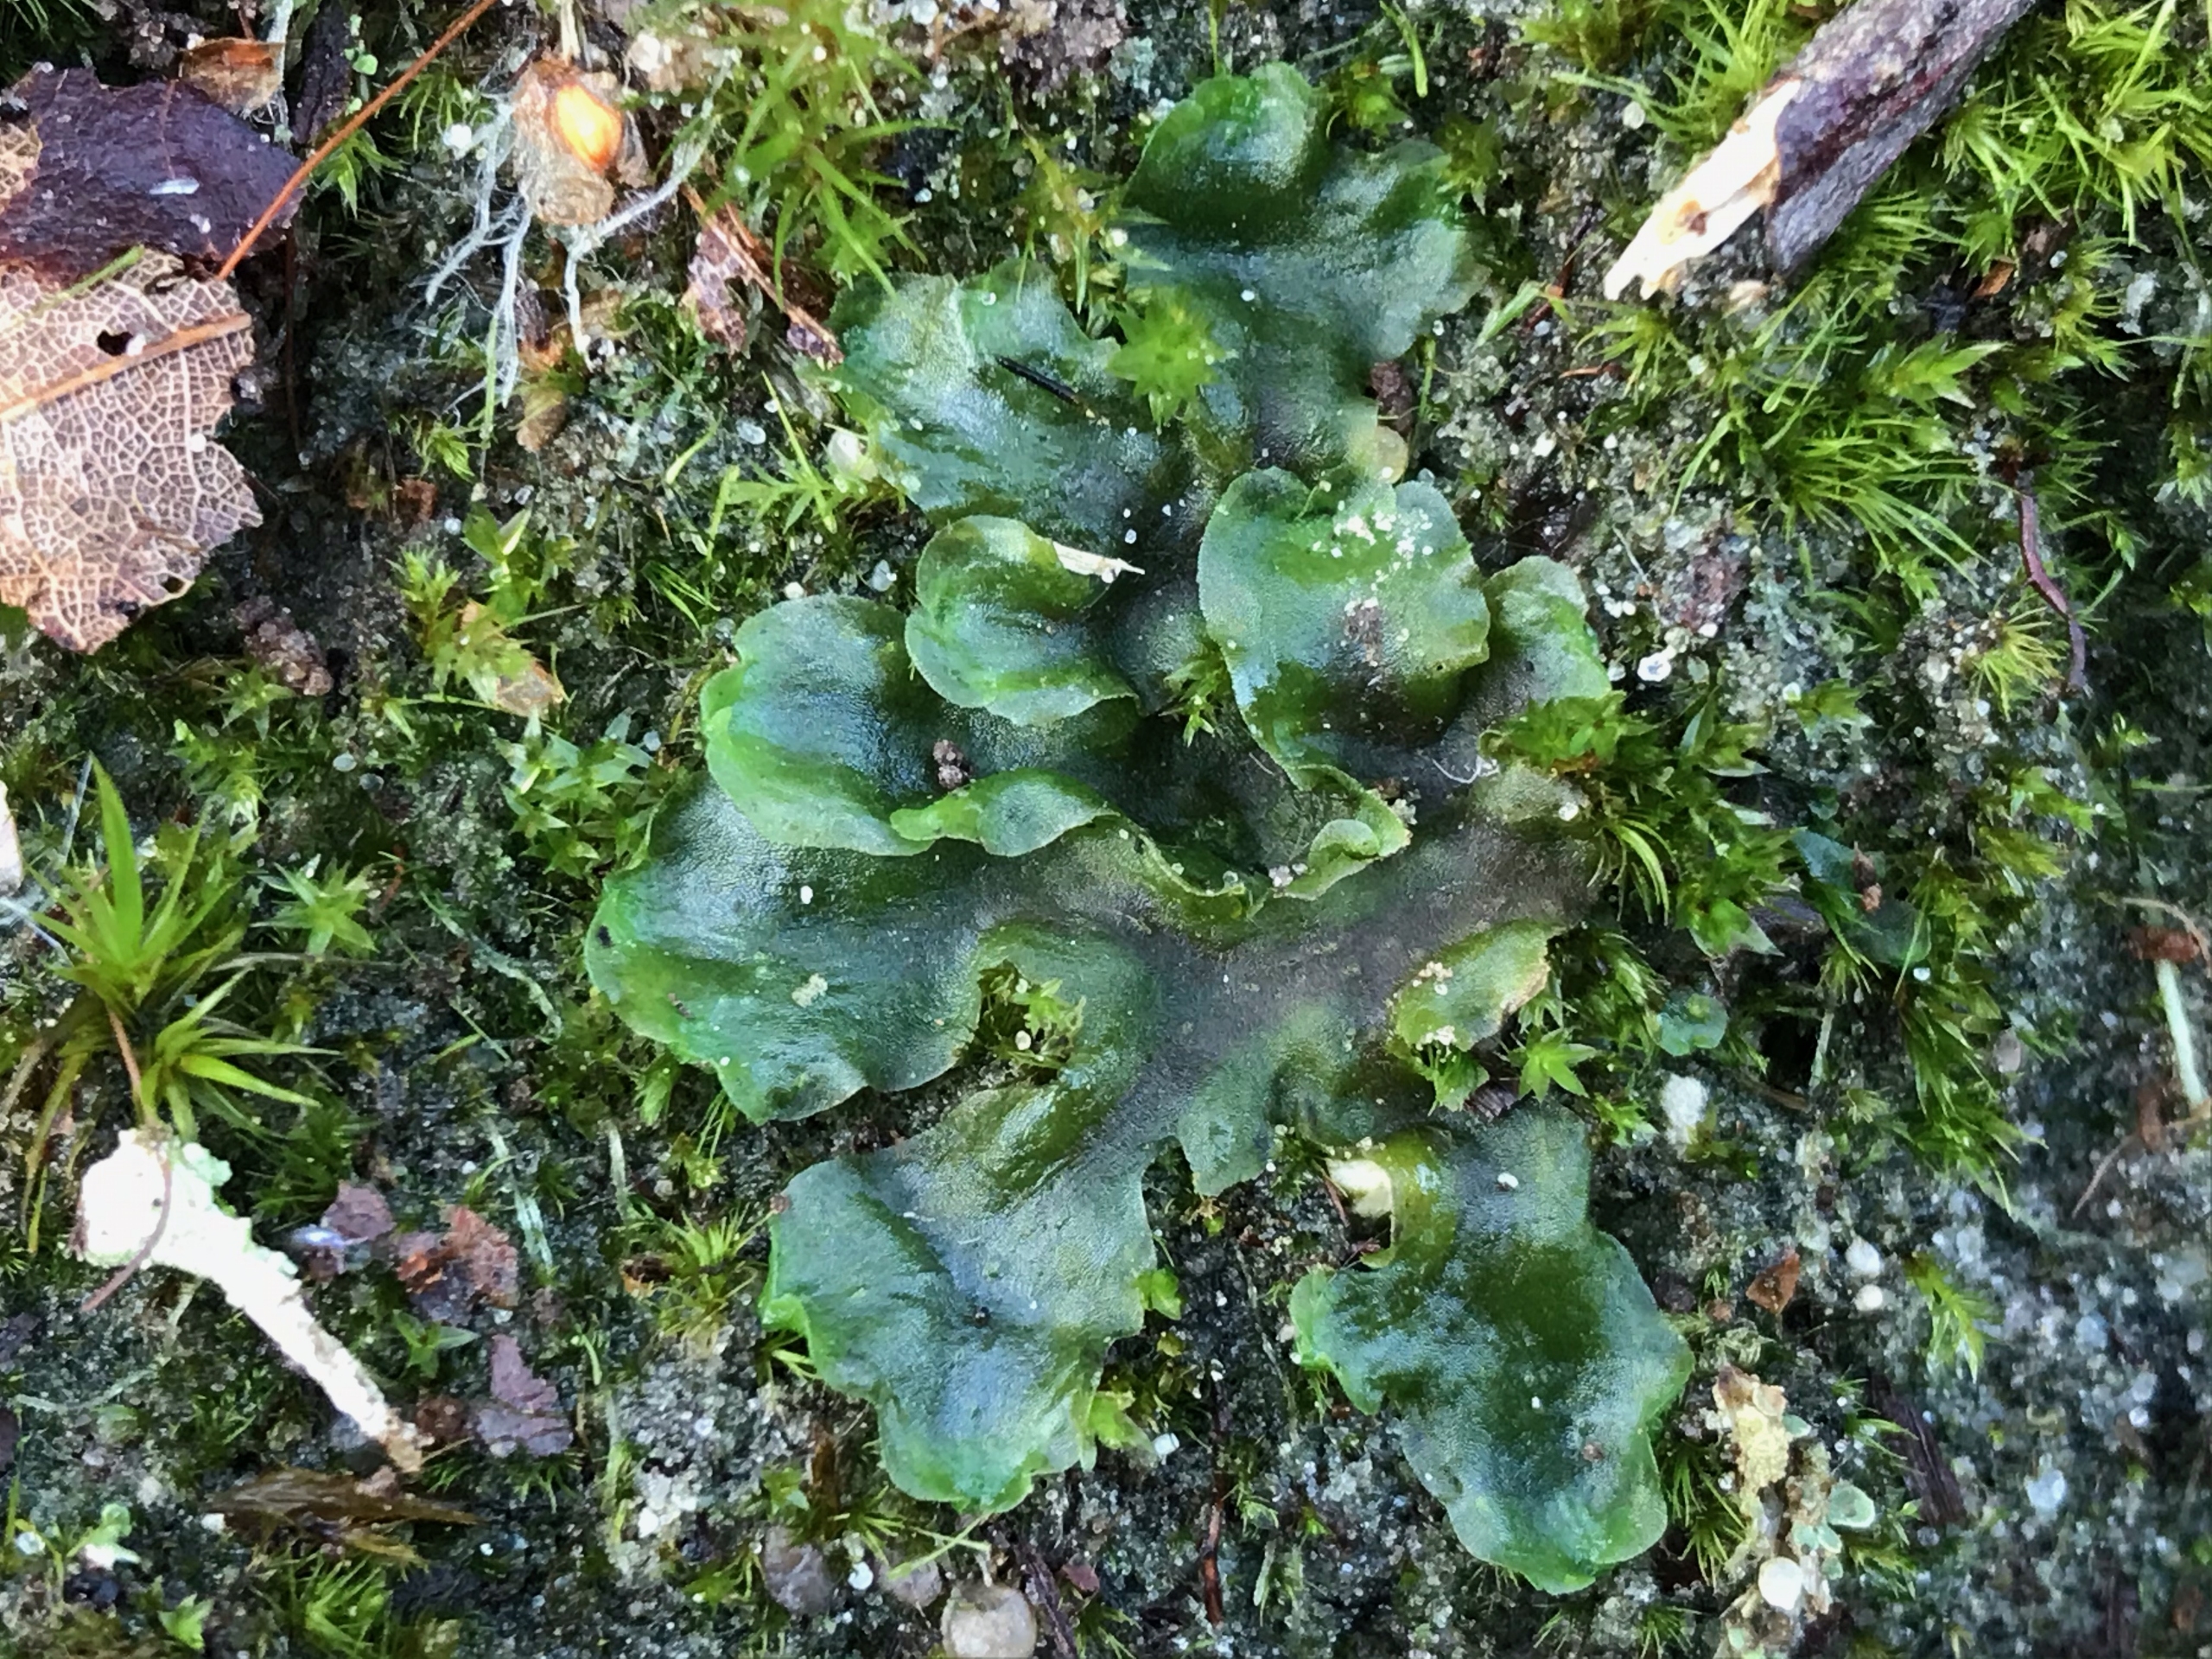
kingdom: Plantae
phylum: Marchantiophyta
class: Jungermanniopsida
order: Pelliales
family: Pelliaceae
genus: Pellia
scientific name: Pellia epiphylla
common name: Enbo ribbeløv
